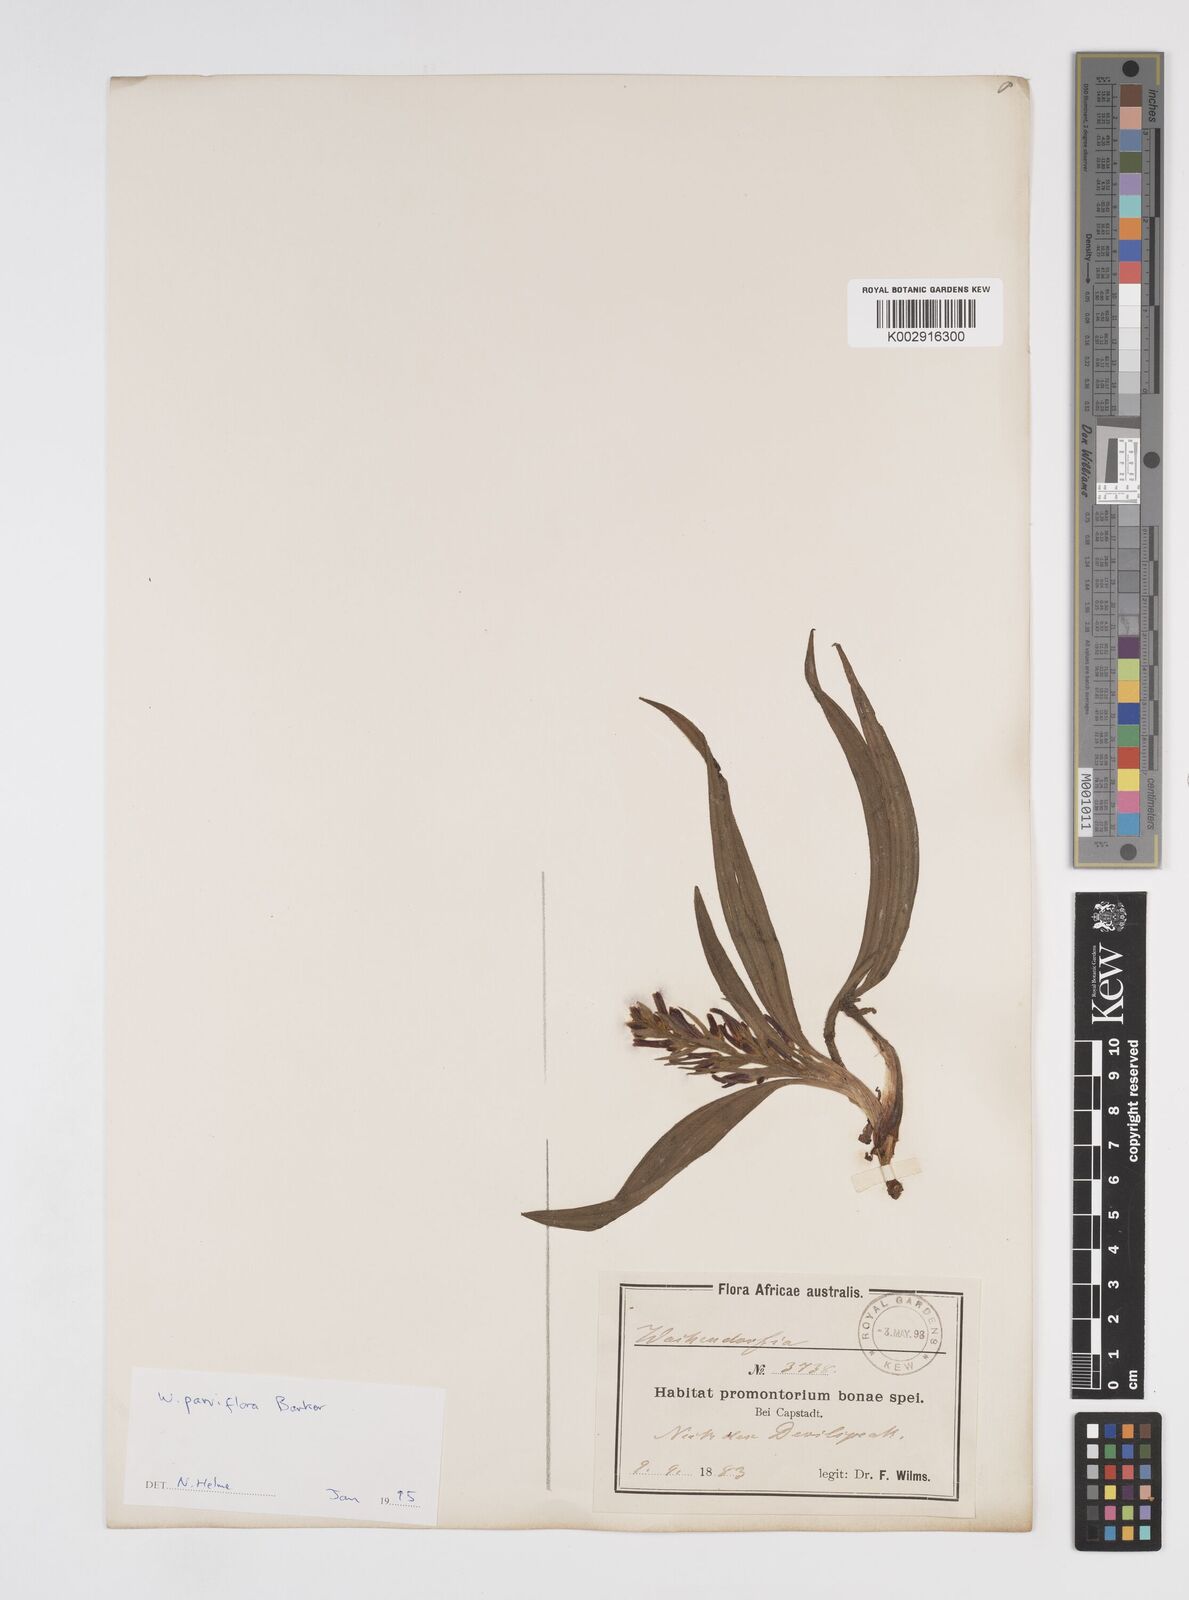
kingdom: Plantae
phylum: Tracheophyta
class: Liliopsida
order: Commelinales
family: Haemodoraceae
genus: Wachendorfia
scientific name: Wachendorfia multiflora
